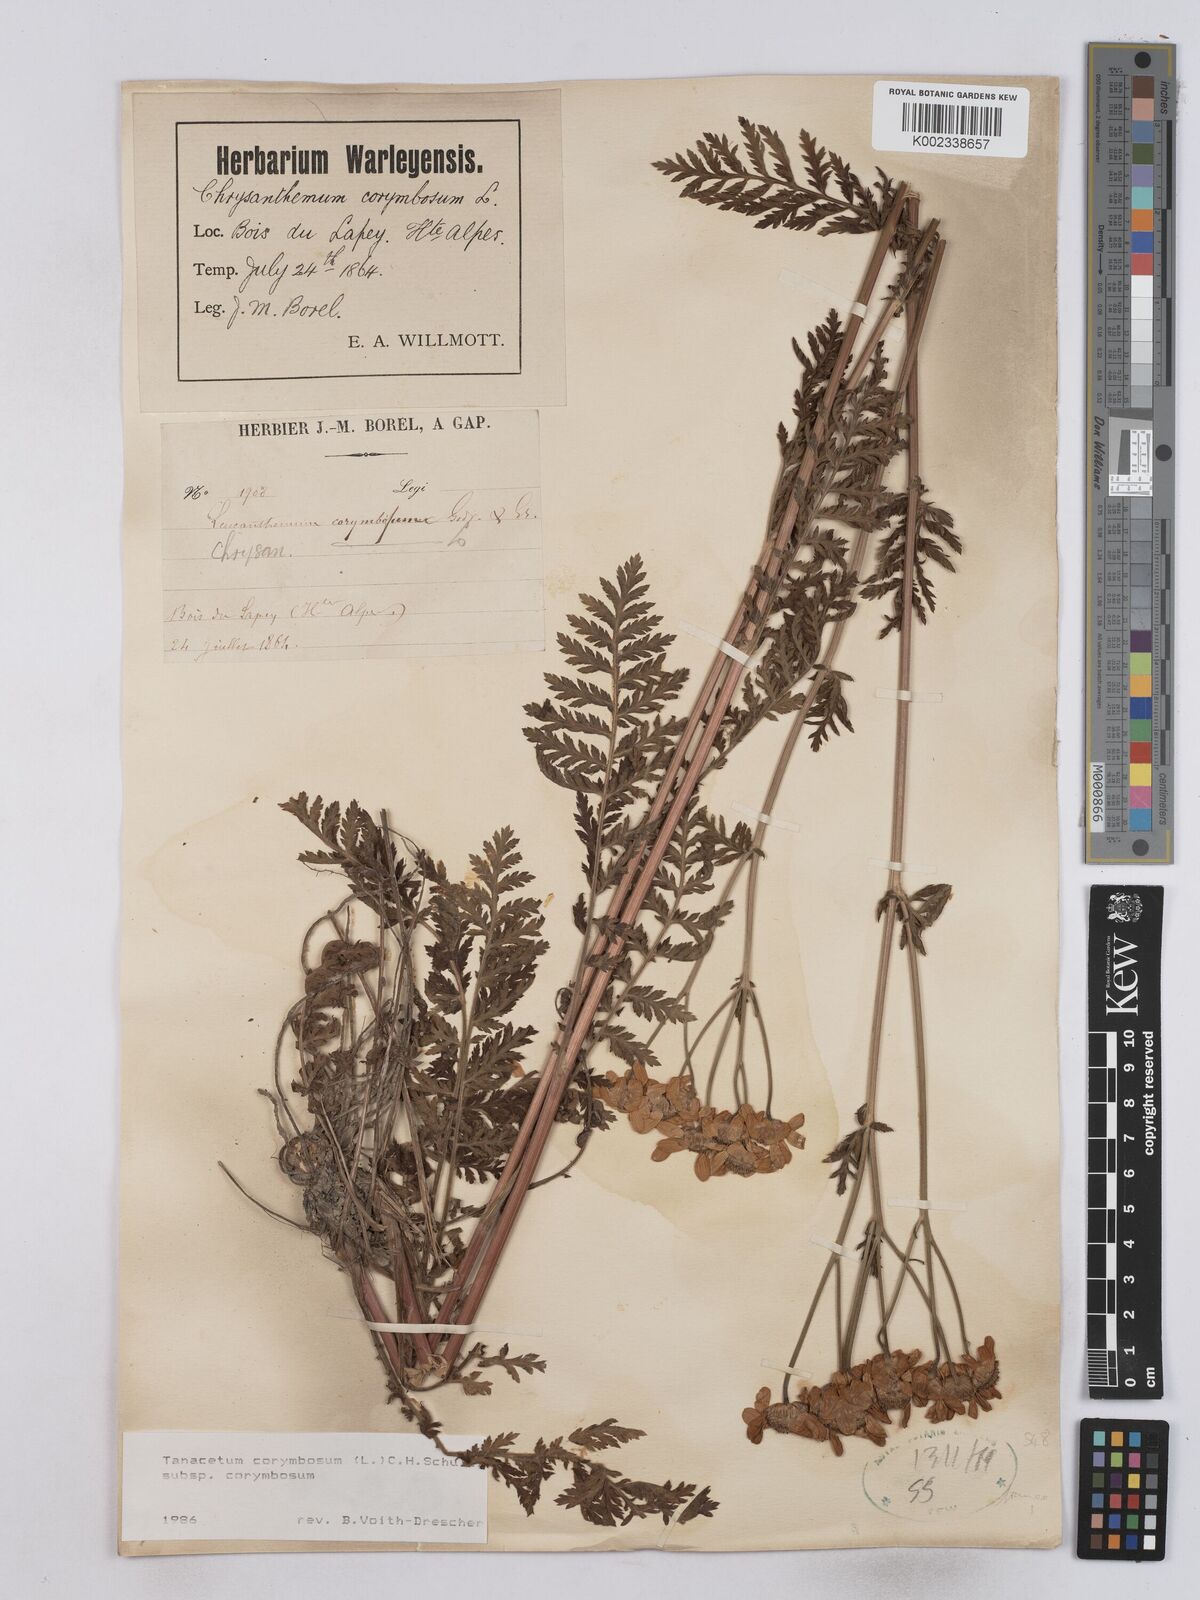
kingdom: Plantae
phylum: Tracheophyta
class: Magnoliopsida
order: Asterales
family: Asteraceae
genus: Tanacetum
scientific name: Tanacetum corymbosum
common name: Scentless feverfew
